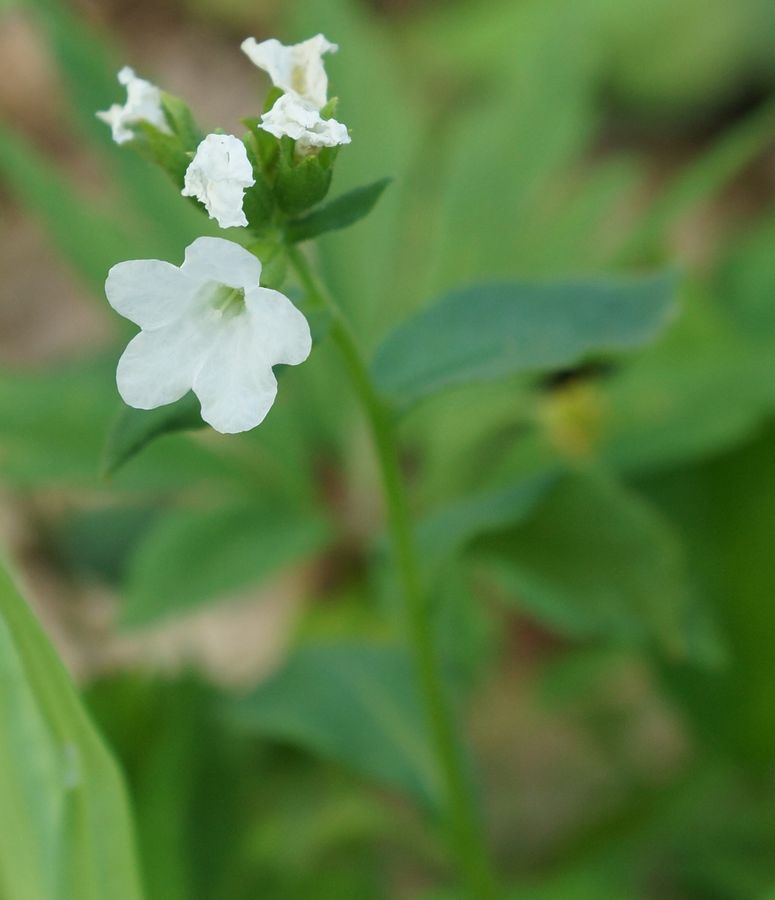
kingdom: Plantae
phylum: Tracheophyta
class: Magnoliopsida
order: Boraginales
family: Boraginaceae
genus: Pulmonaria
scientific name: Pulmonaria obscura
